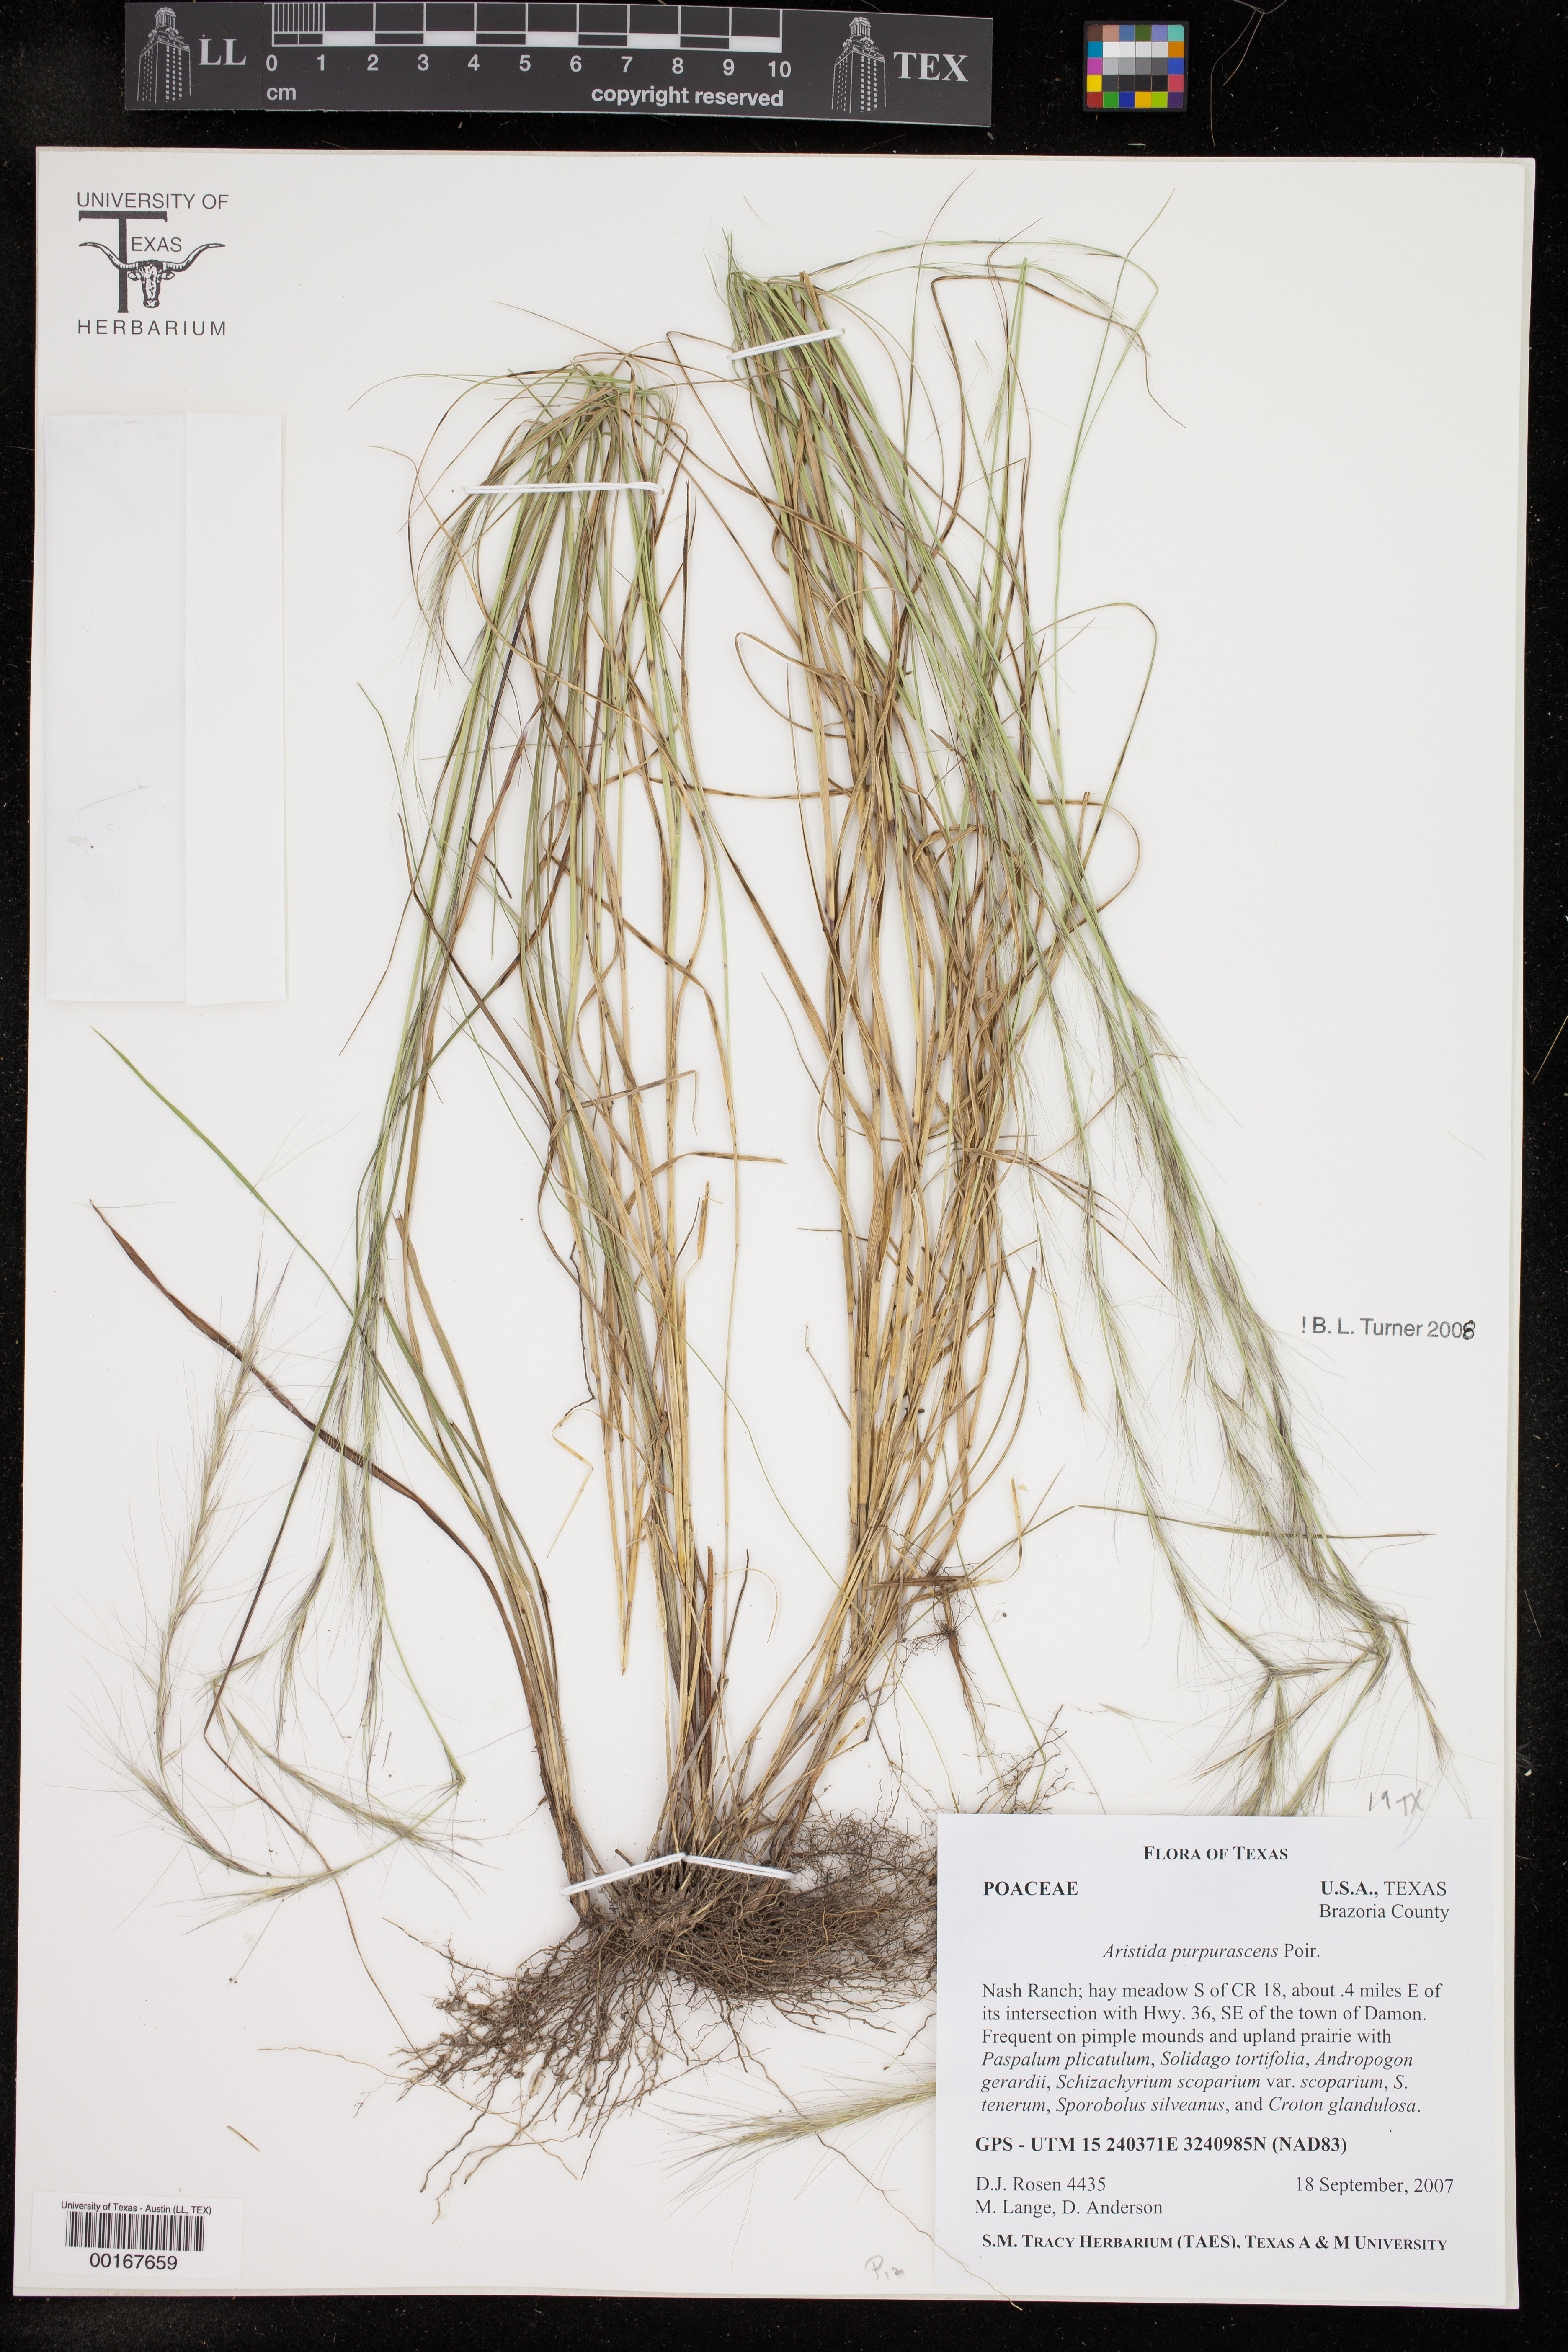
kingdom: Plantae
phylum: Tracheophyta
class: Liliopsida
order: Poales
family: Poaceae
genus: Aristida
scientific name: Aristida purpurascens
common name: Arrow-feather
